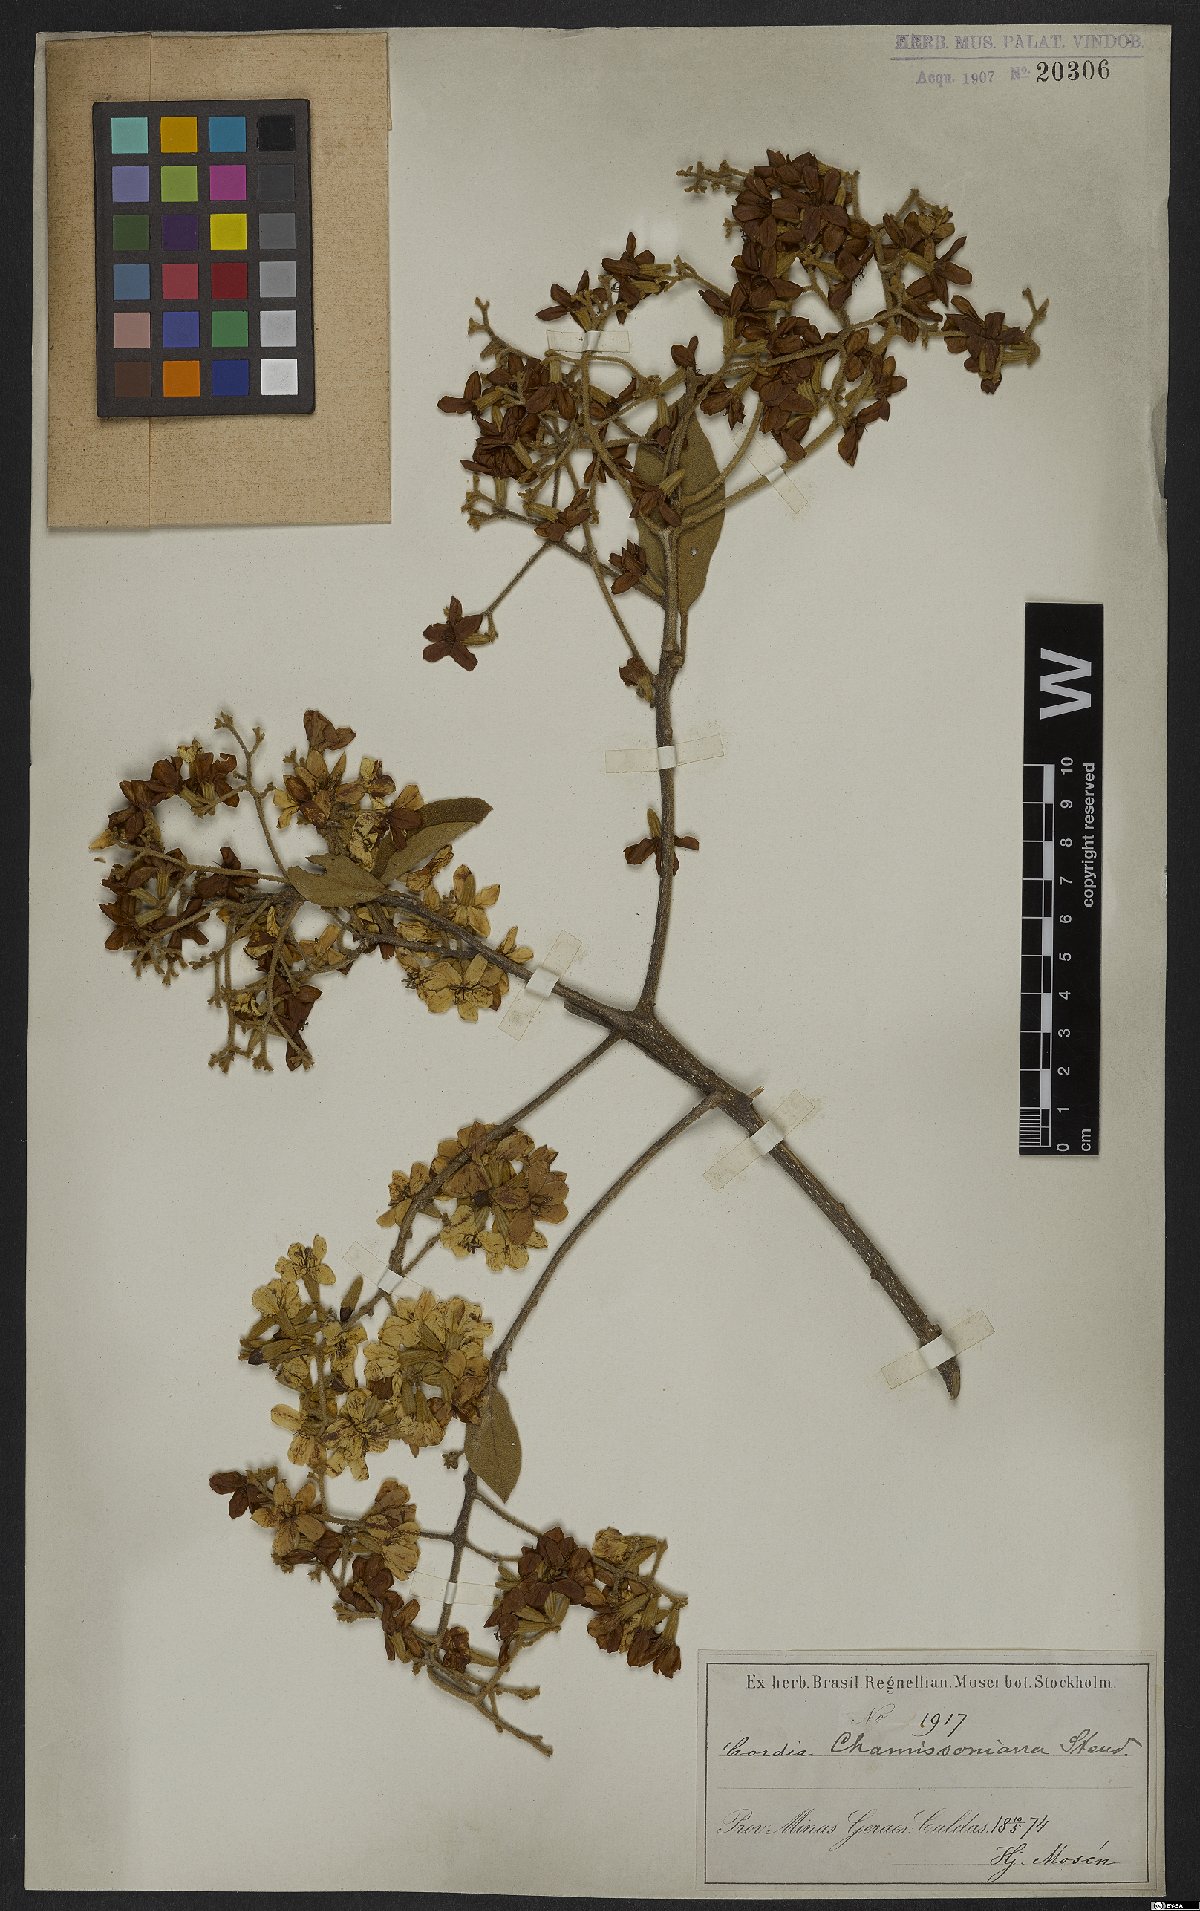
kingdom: Plantae
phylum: Tracheophyta
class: Magnoliopsida
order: Boraginales
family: Cordiaceae
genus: Cordia
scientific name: Cordia chamissoniana
